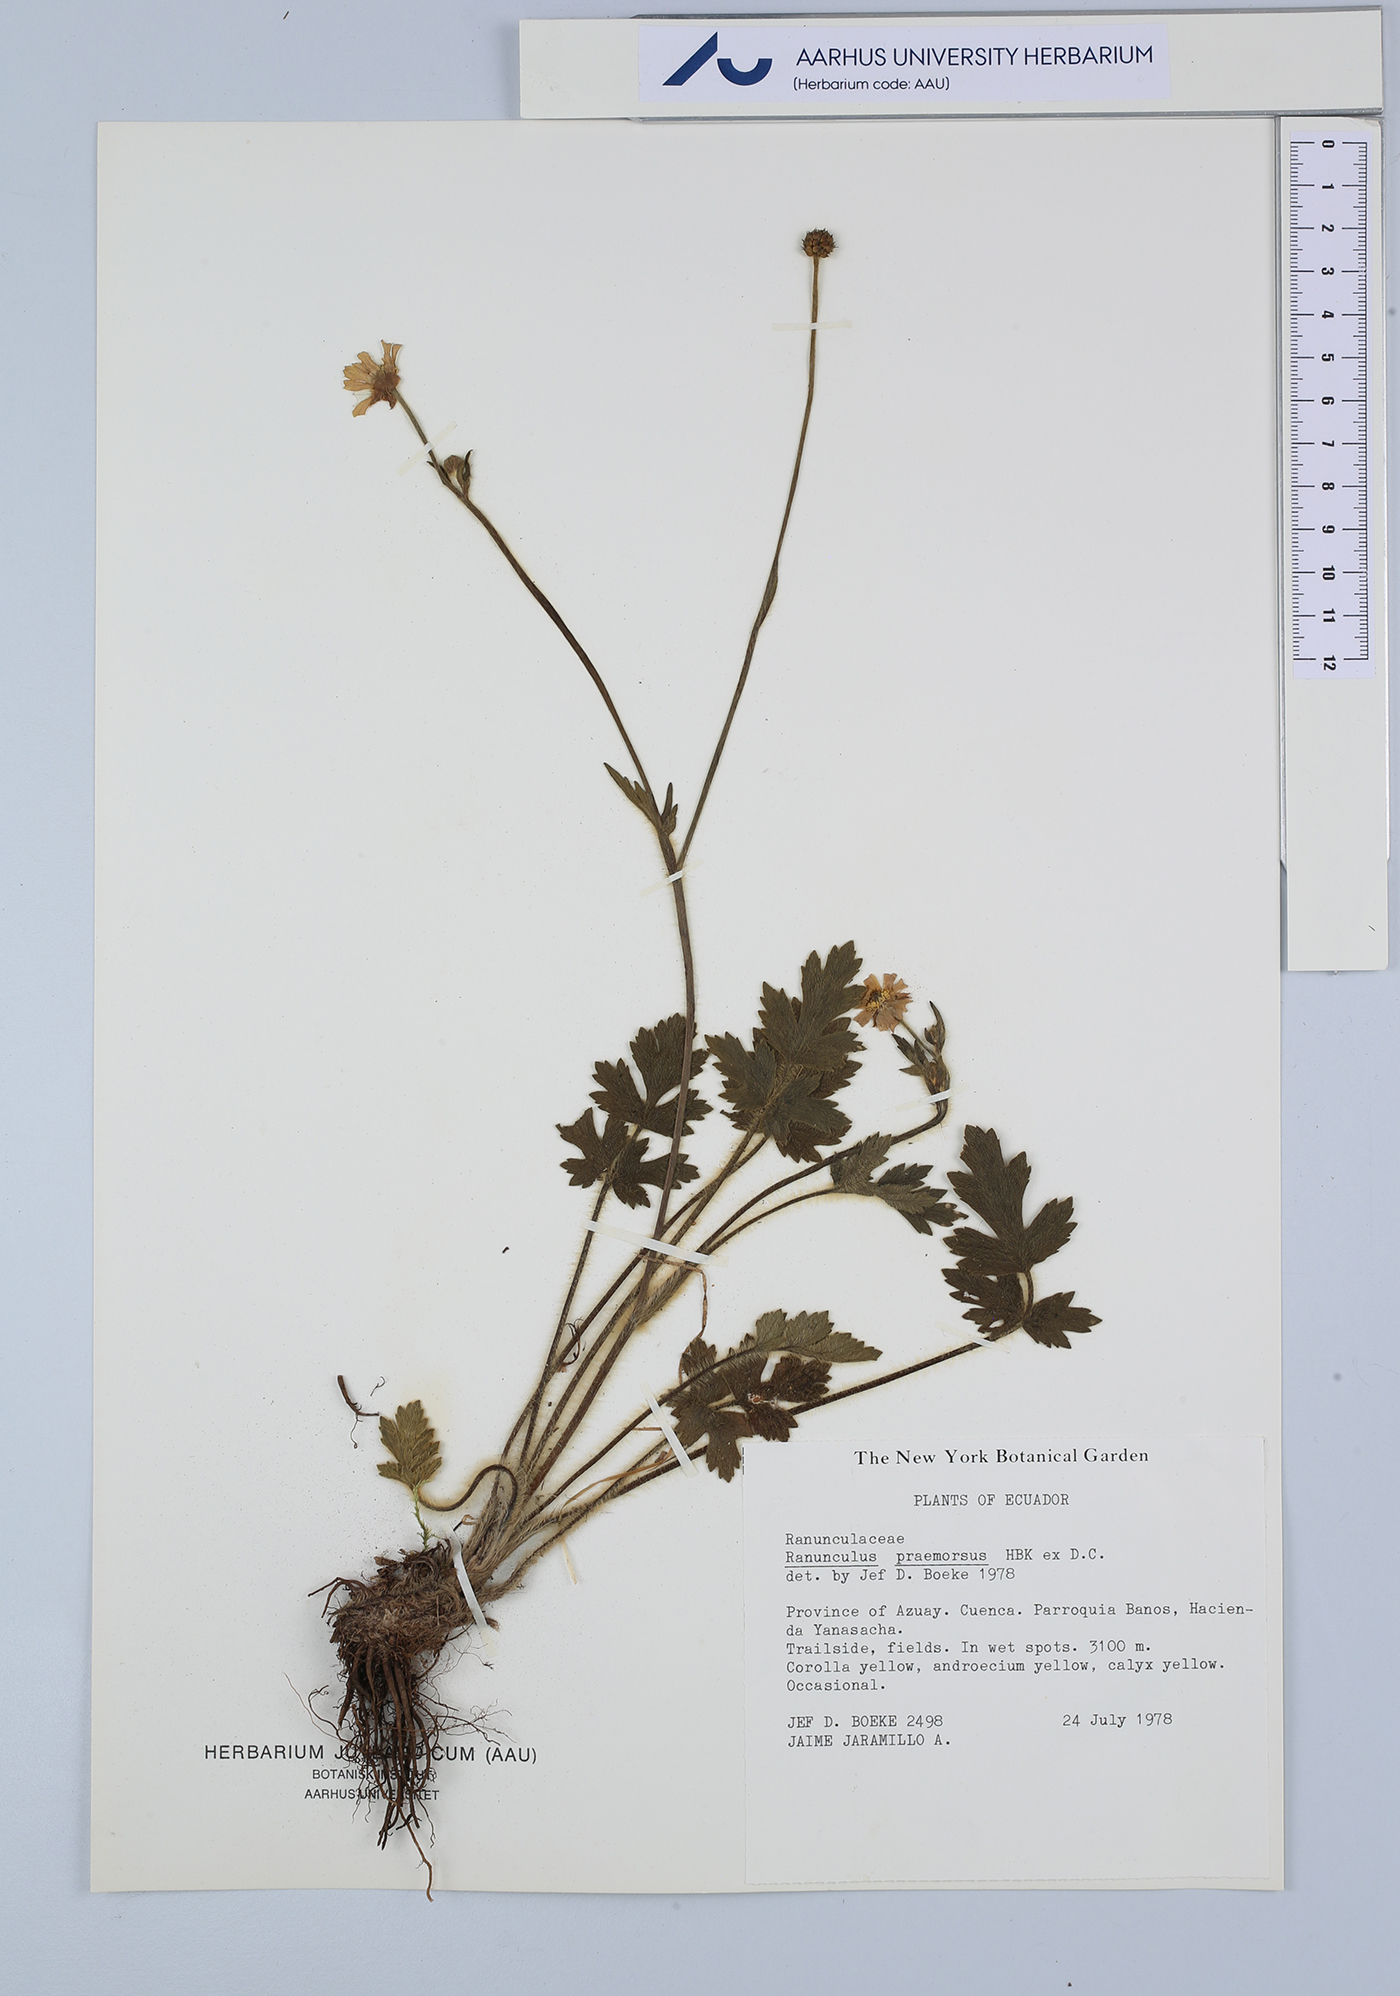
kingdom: Plantae
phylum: Tracheophyta
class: Magnoliopsida
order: Ranunculales
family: Ranunculaceae
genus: Ranunculus
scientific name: Ranunculus praemorsus
